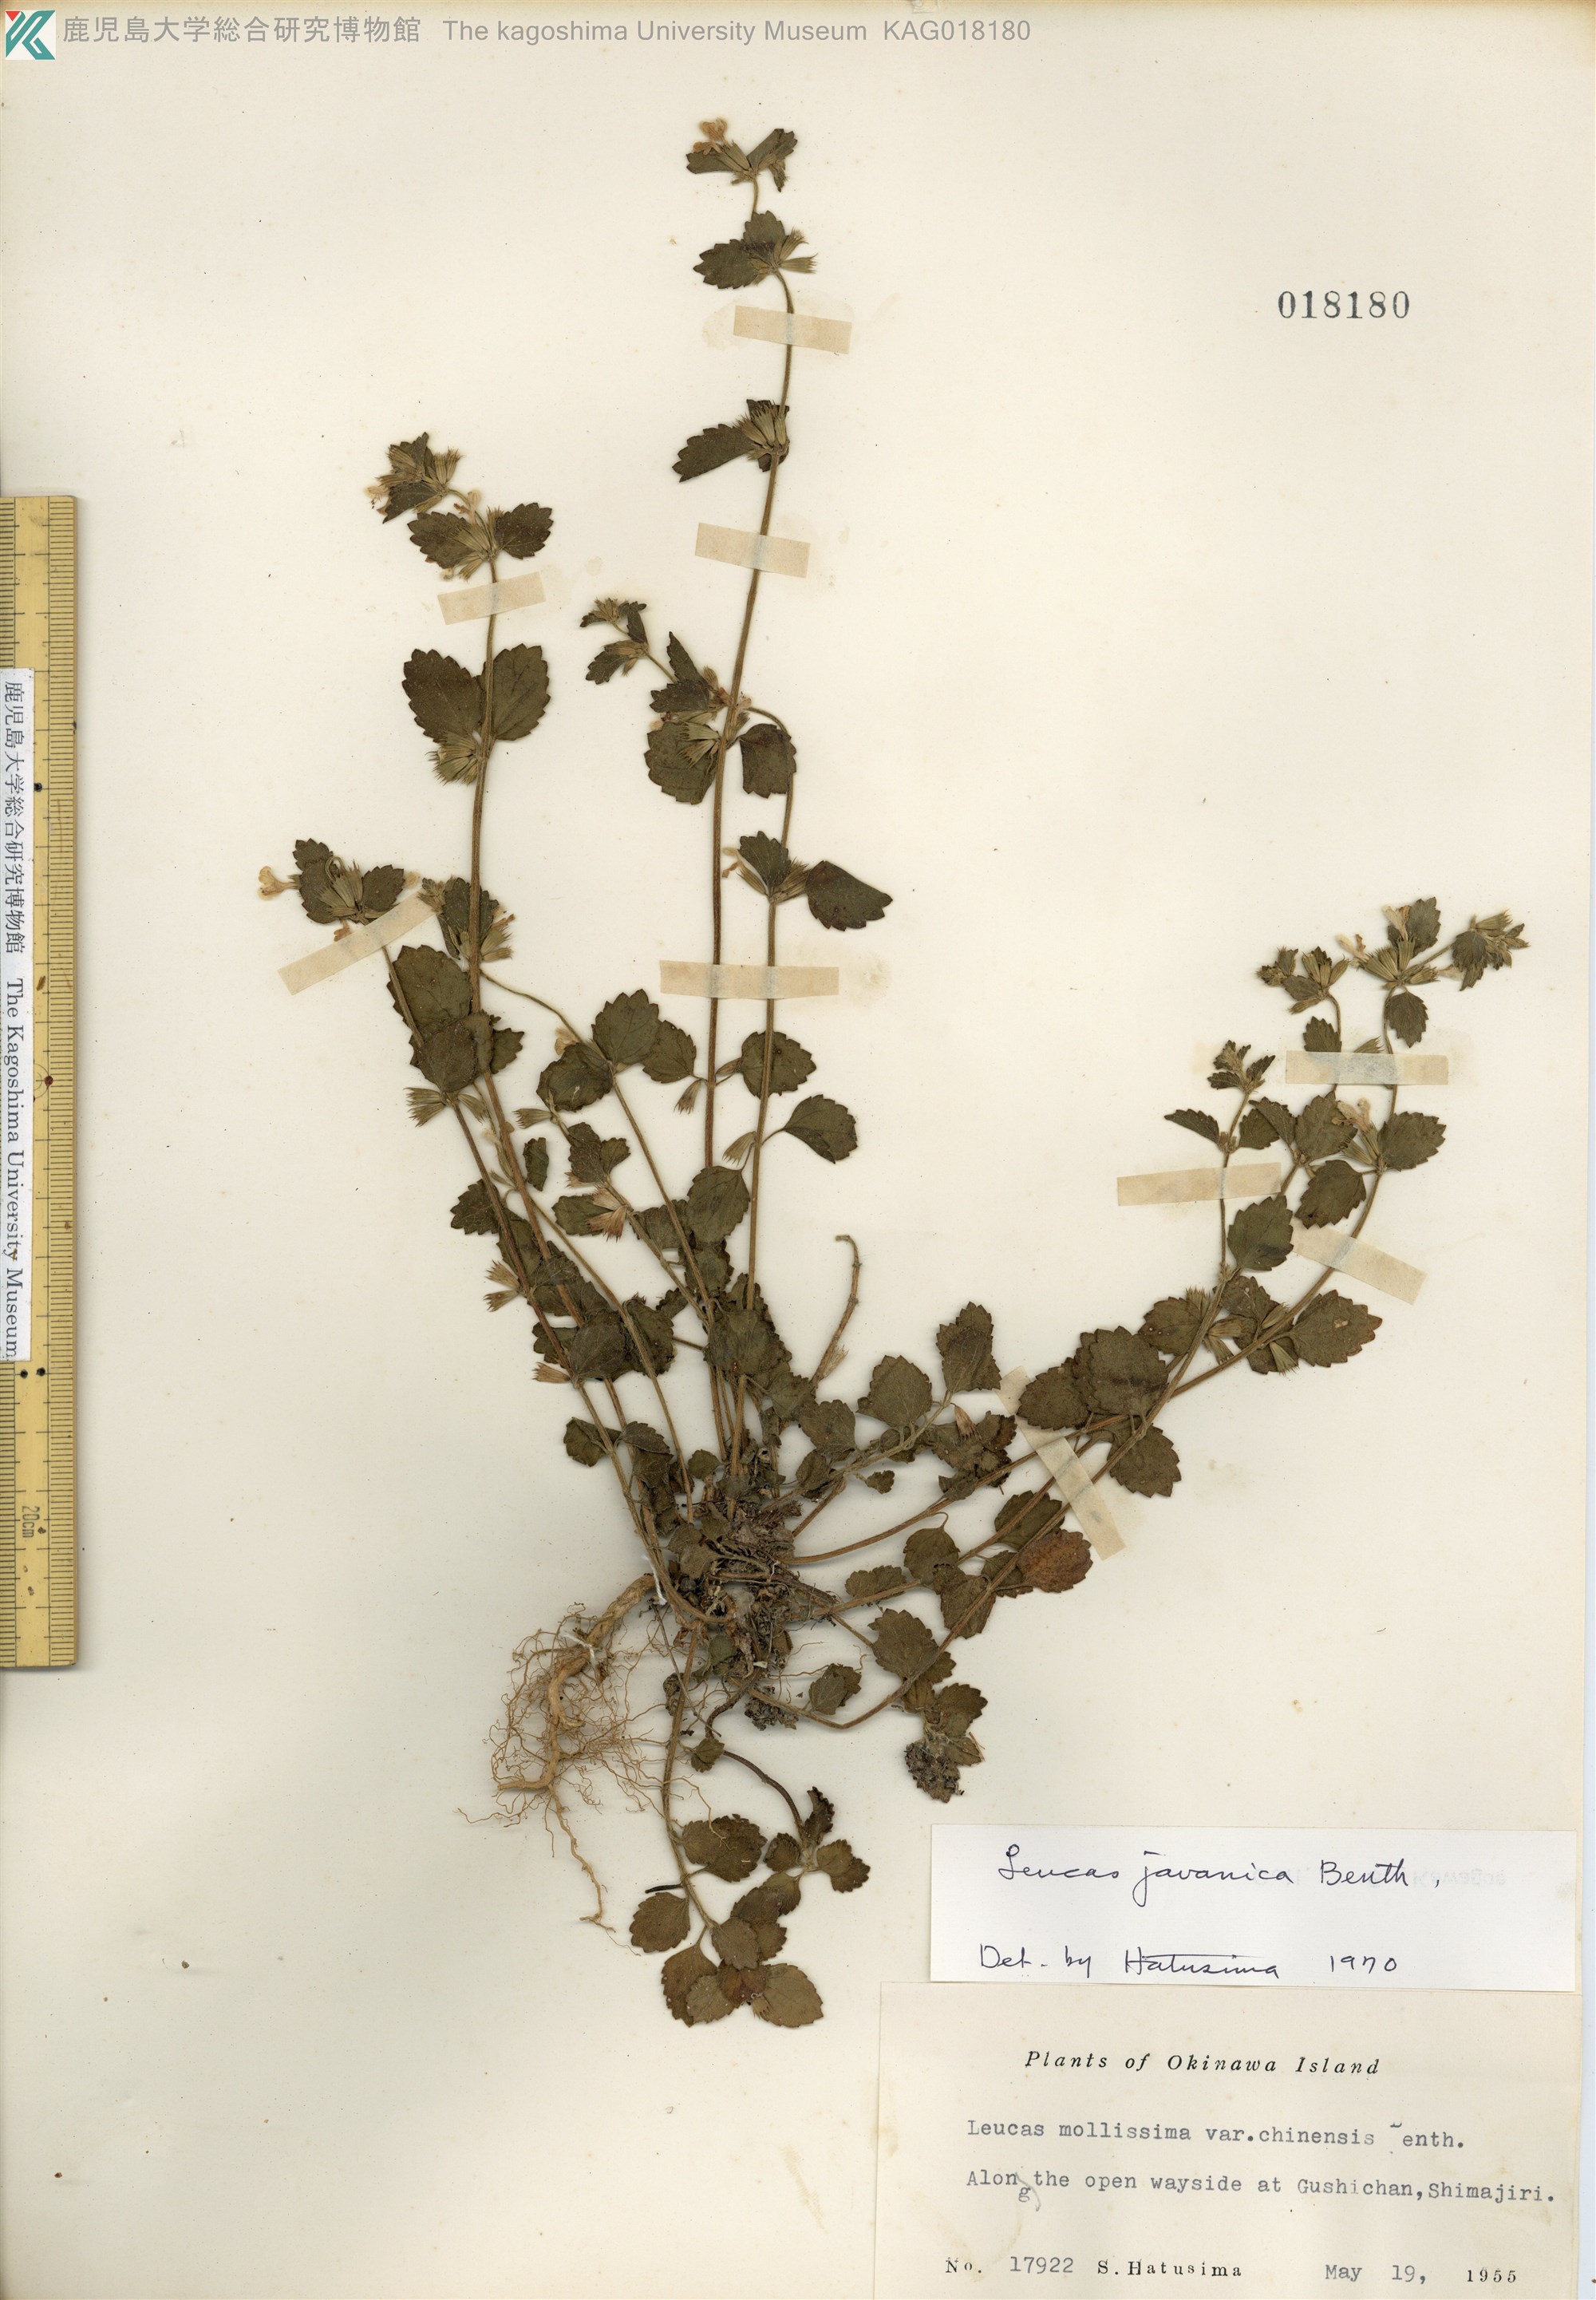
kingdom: Plantae
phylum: Tracheophyta
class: Magnoliopsida
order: Lamiales
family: Lamiaceae
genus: Leucas
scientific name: Leucas chinensis
